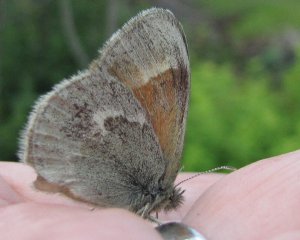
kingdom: Animalia
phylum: Arthropoda
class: Insecta
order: Lepidoptera
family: Nymphalidae
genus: Coenonympha
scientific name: Coenonympha tullia
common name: Large Heath
